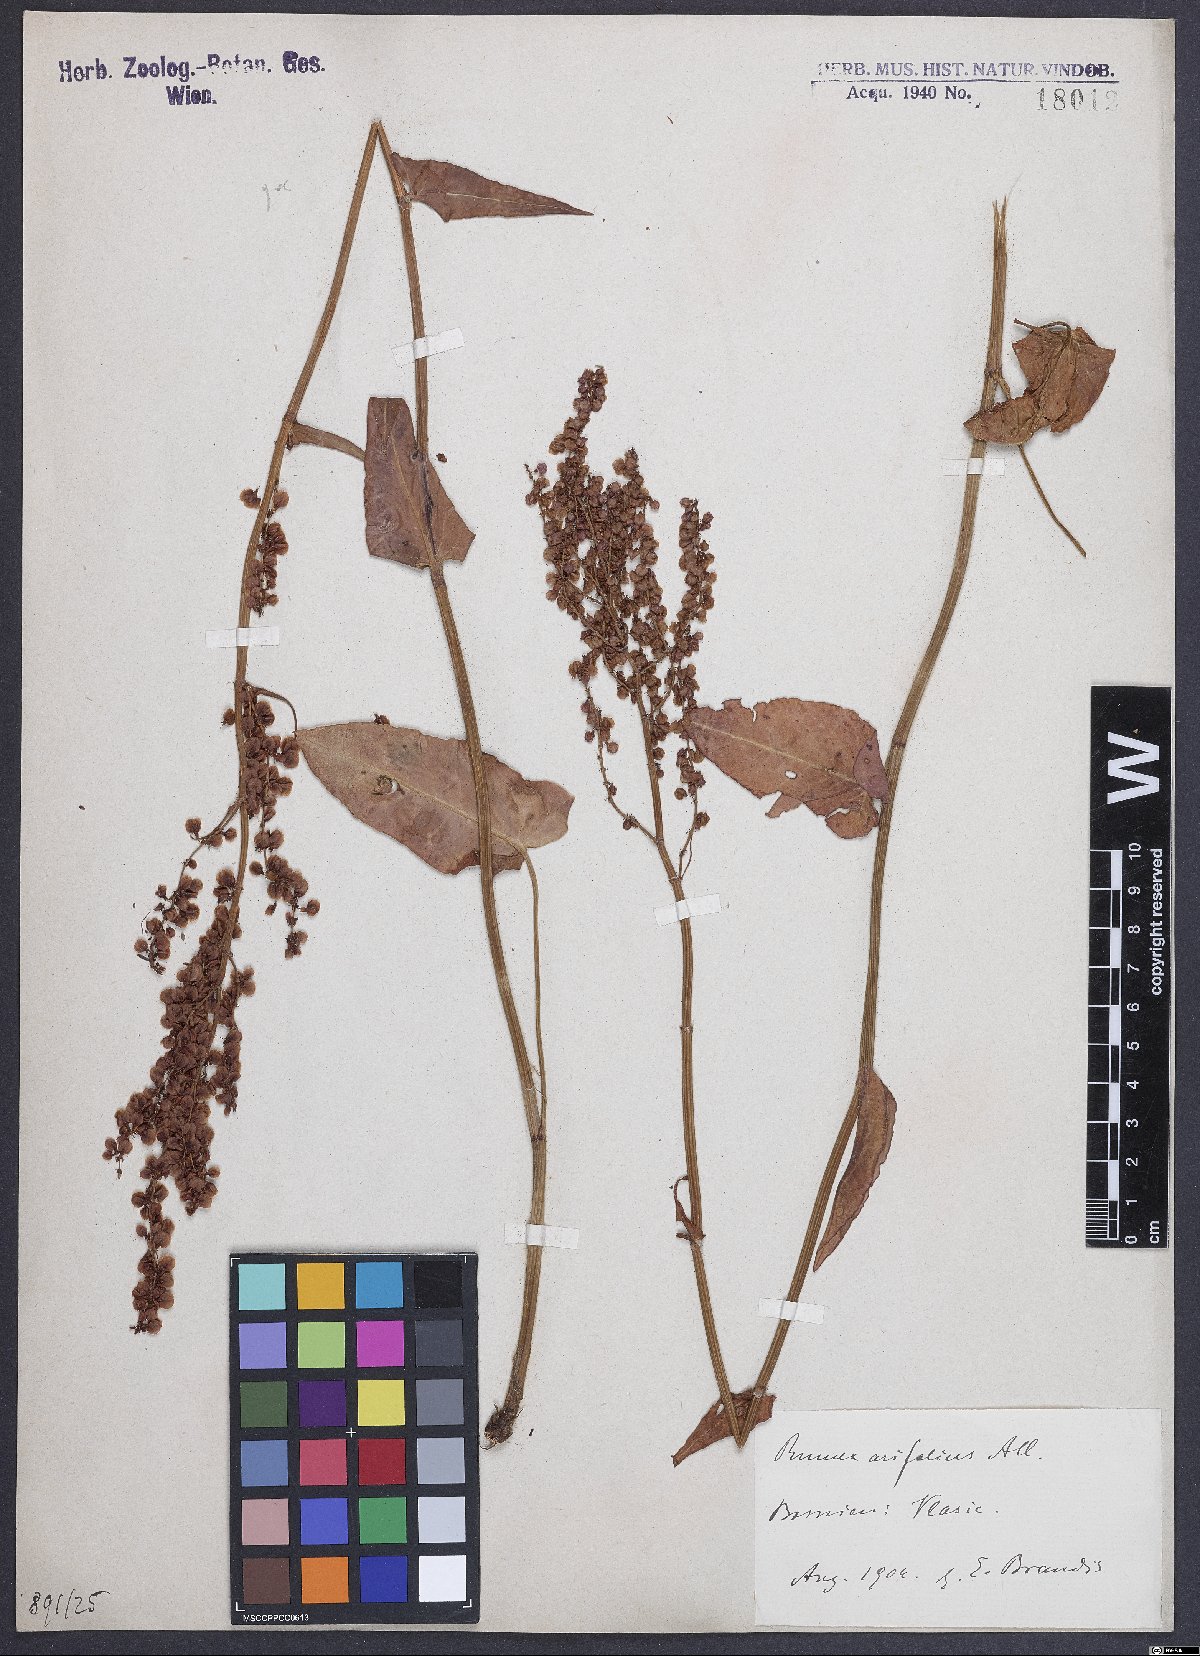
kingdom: Plantae
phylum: Tracheophyta
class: Magnoliopsida
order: Caryophyllales
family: Polygonaceae
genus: Rumex
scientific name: Rumex arifolius
